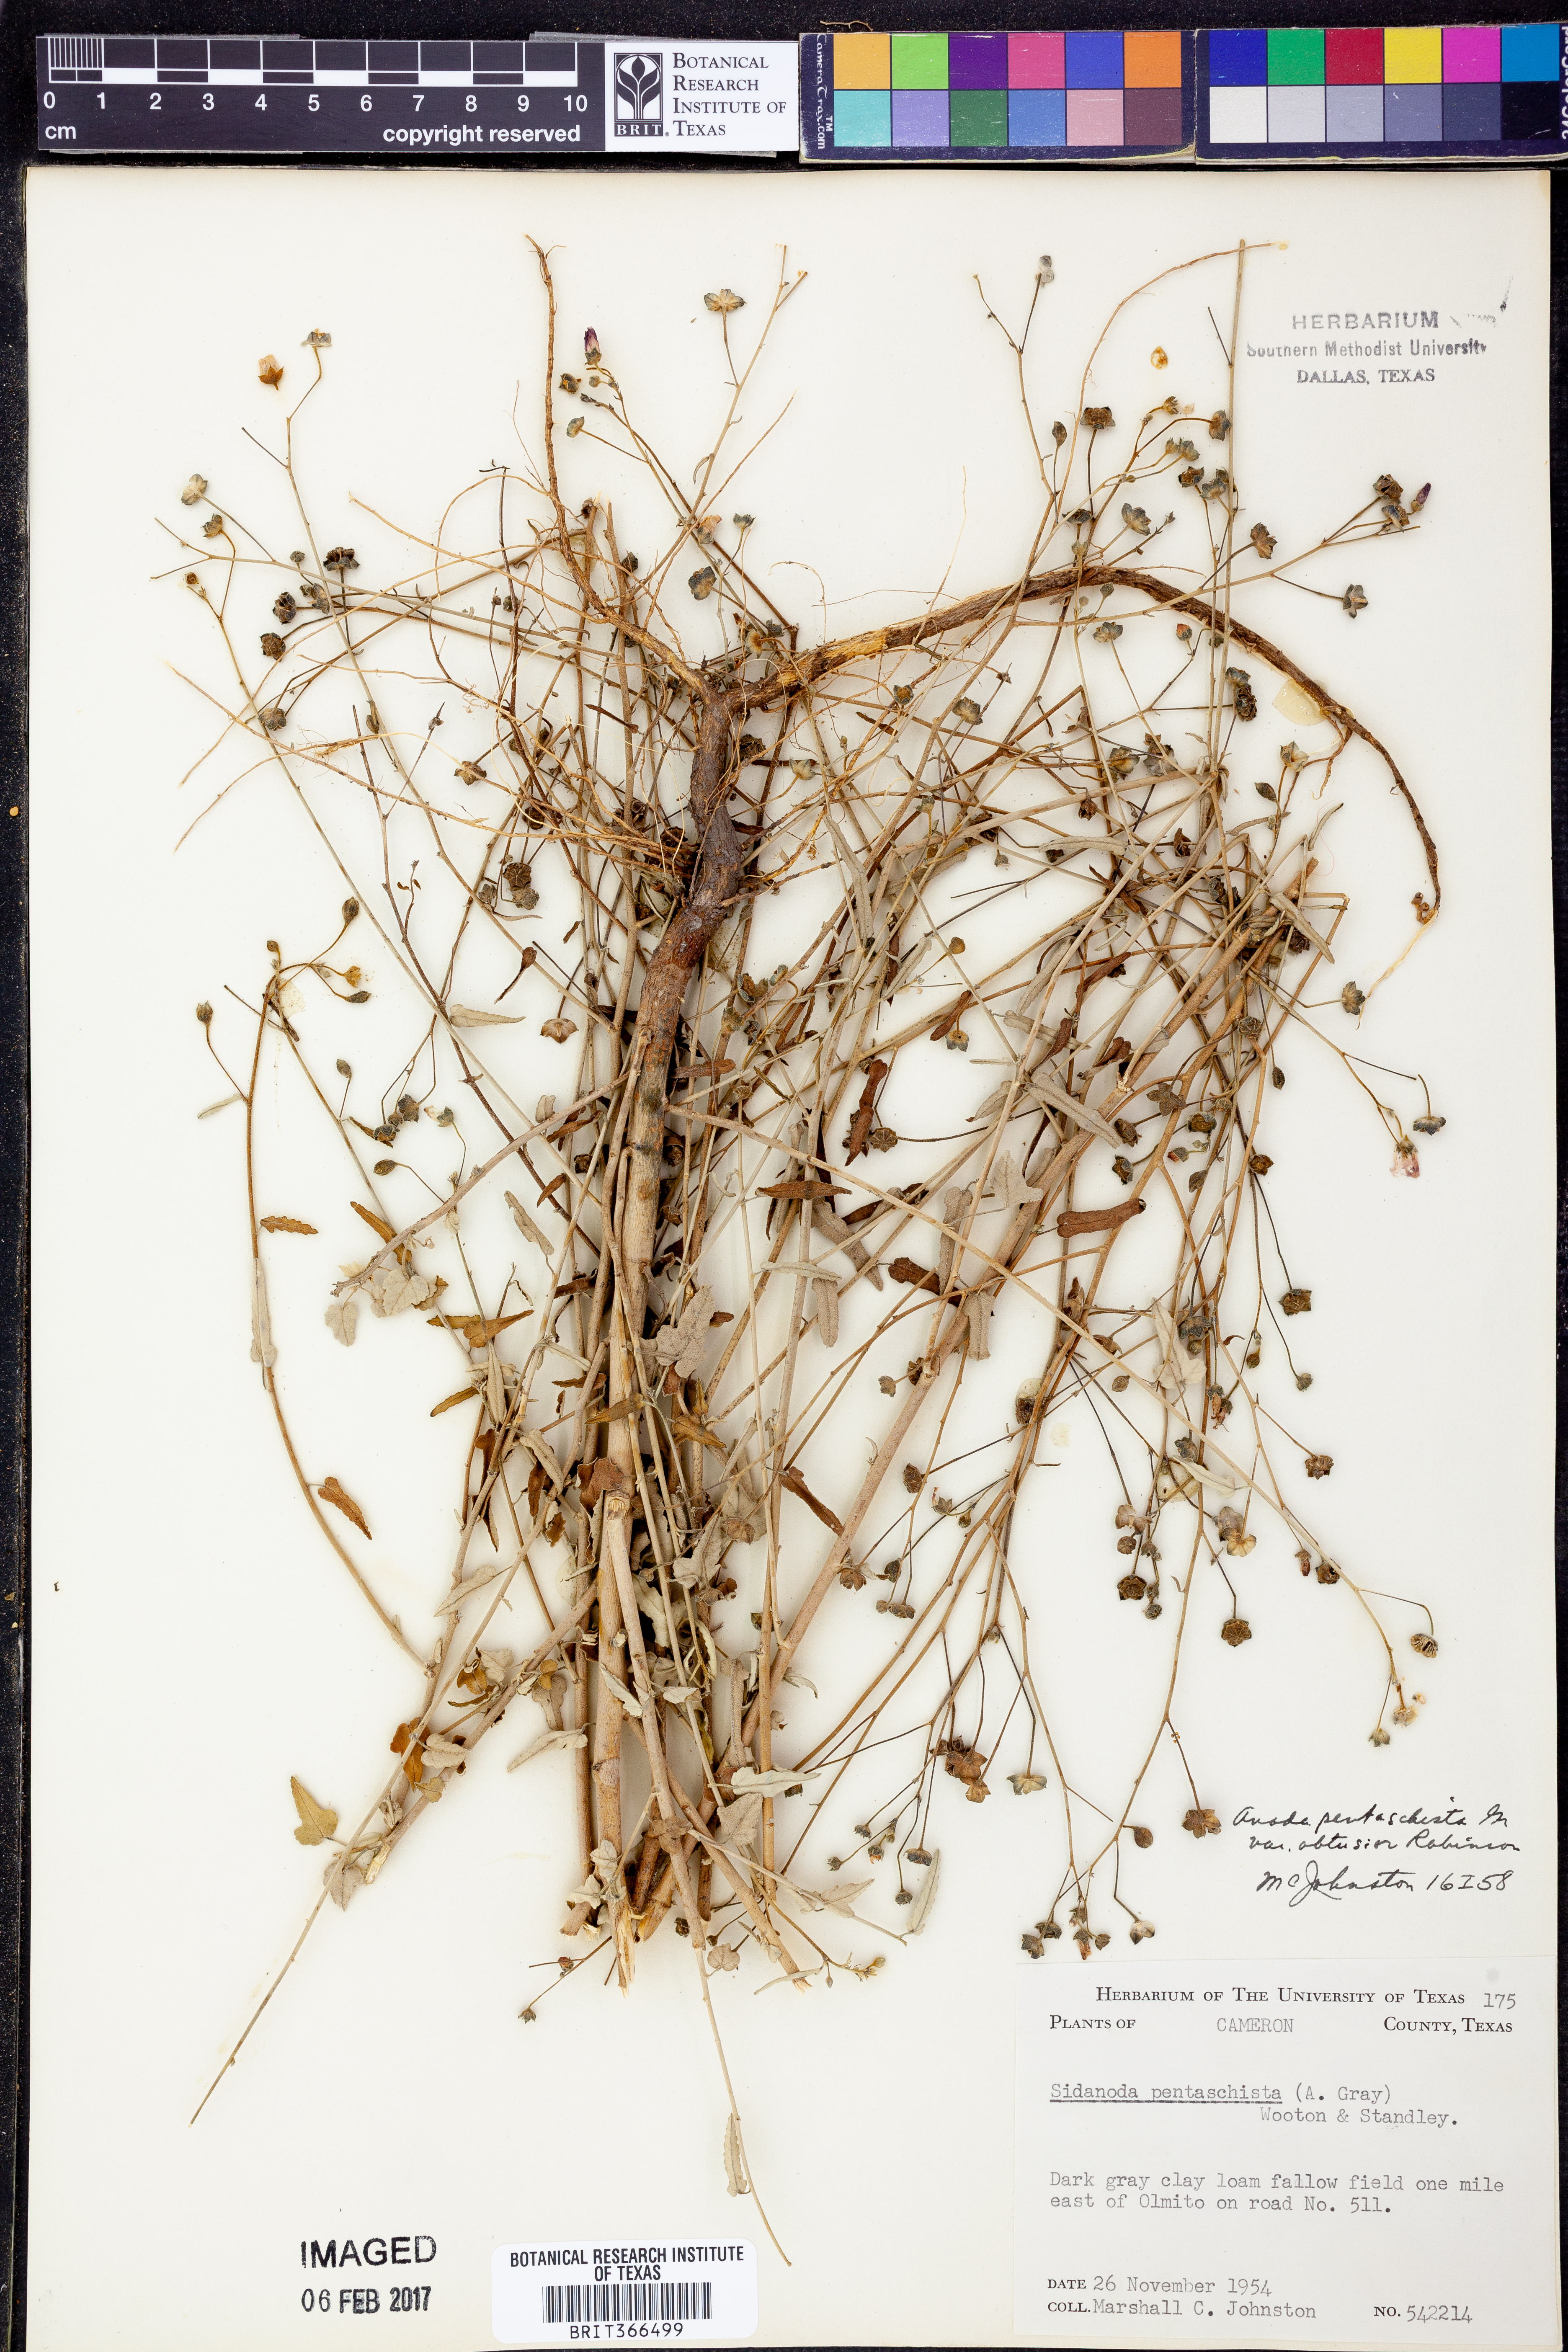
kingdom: Plantae
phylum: Tracheophyta
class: Magnoliopsida
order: Malvales
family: Malvaceae
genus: Anoda
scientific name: Anoda pentaschista
